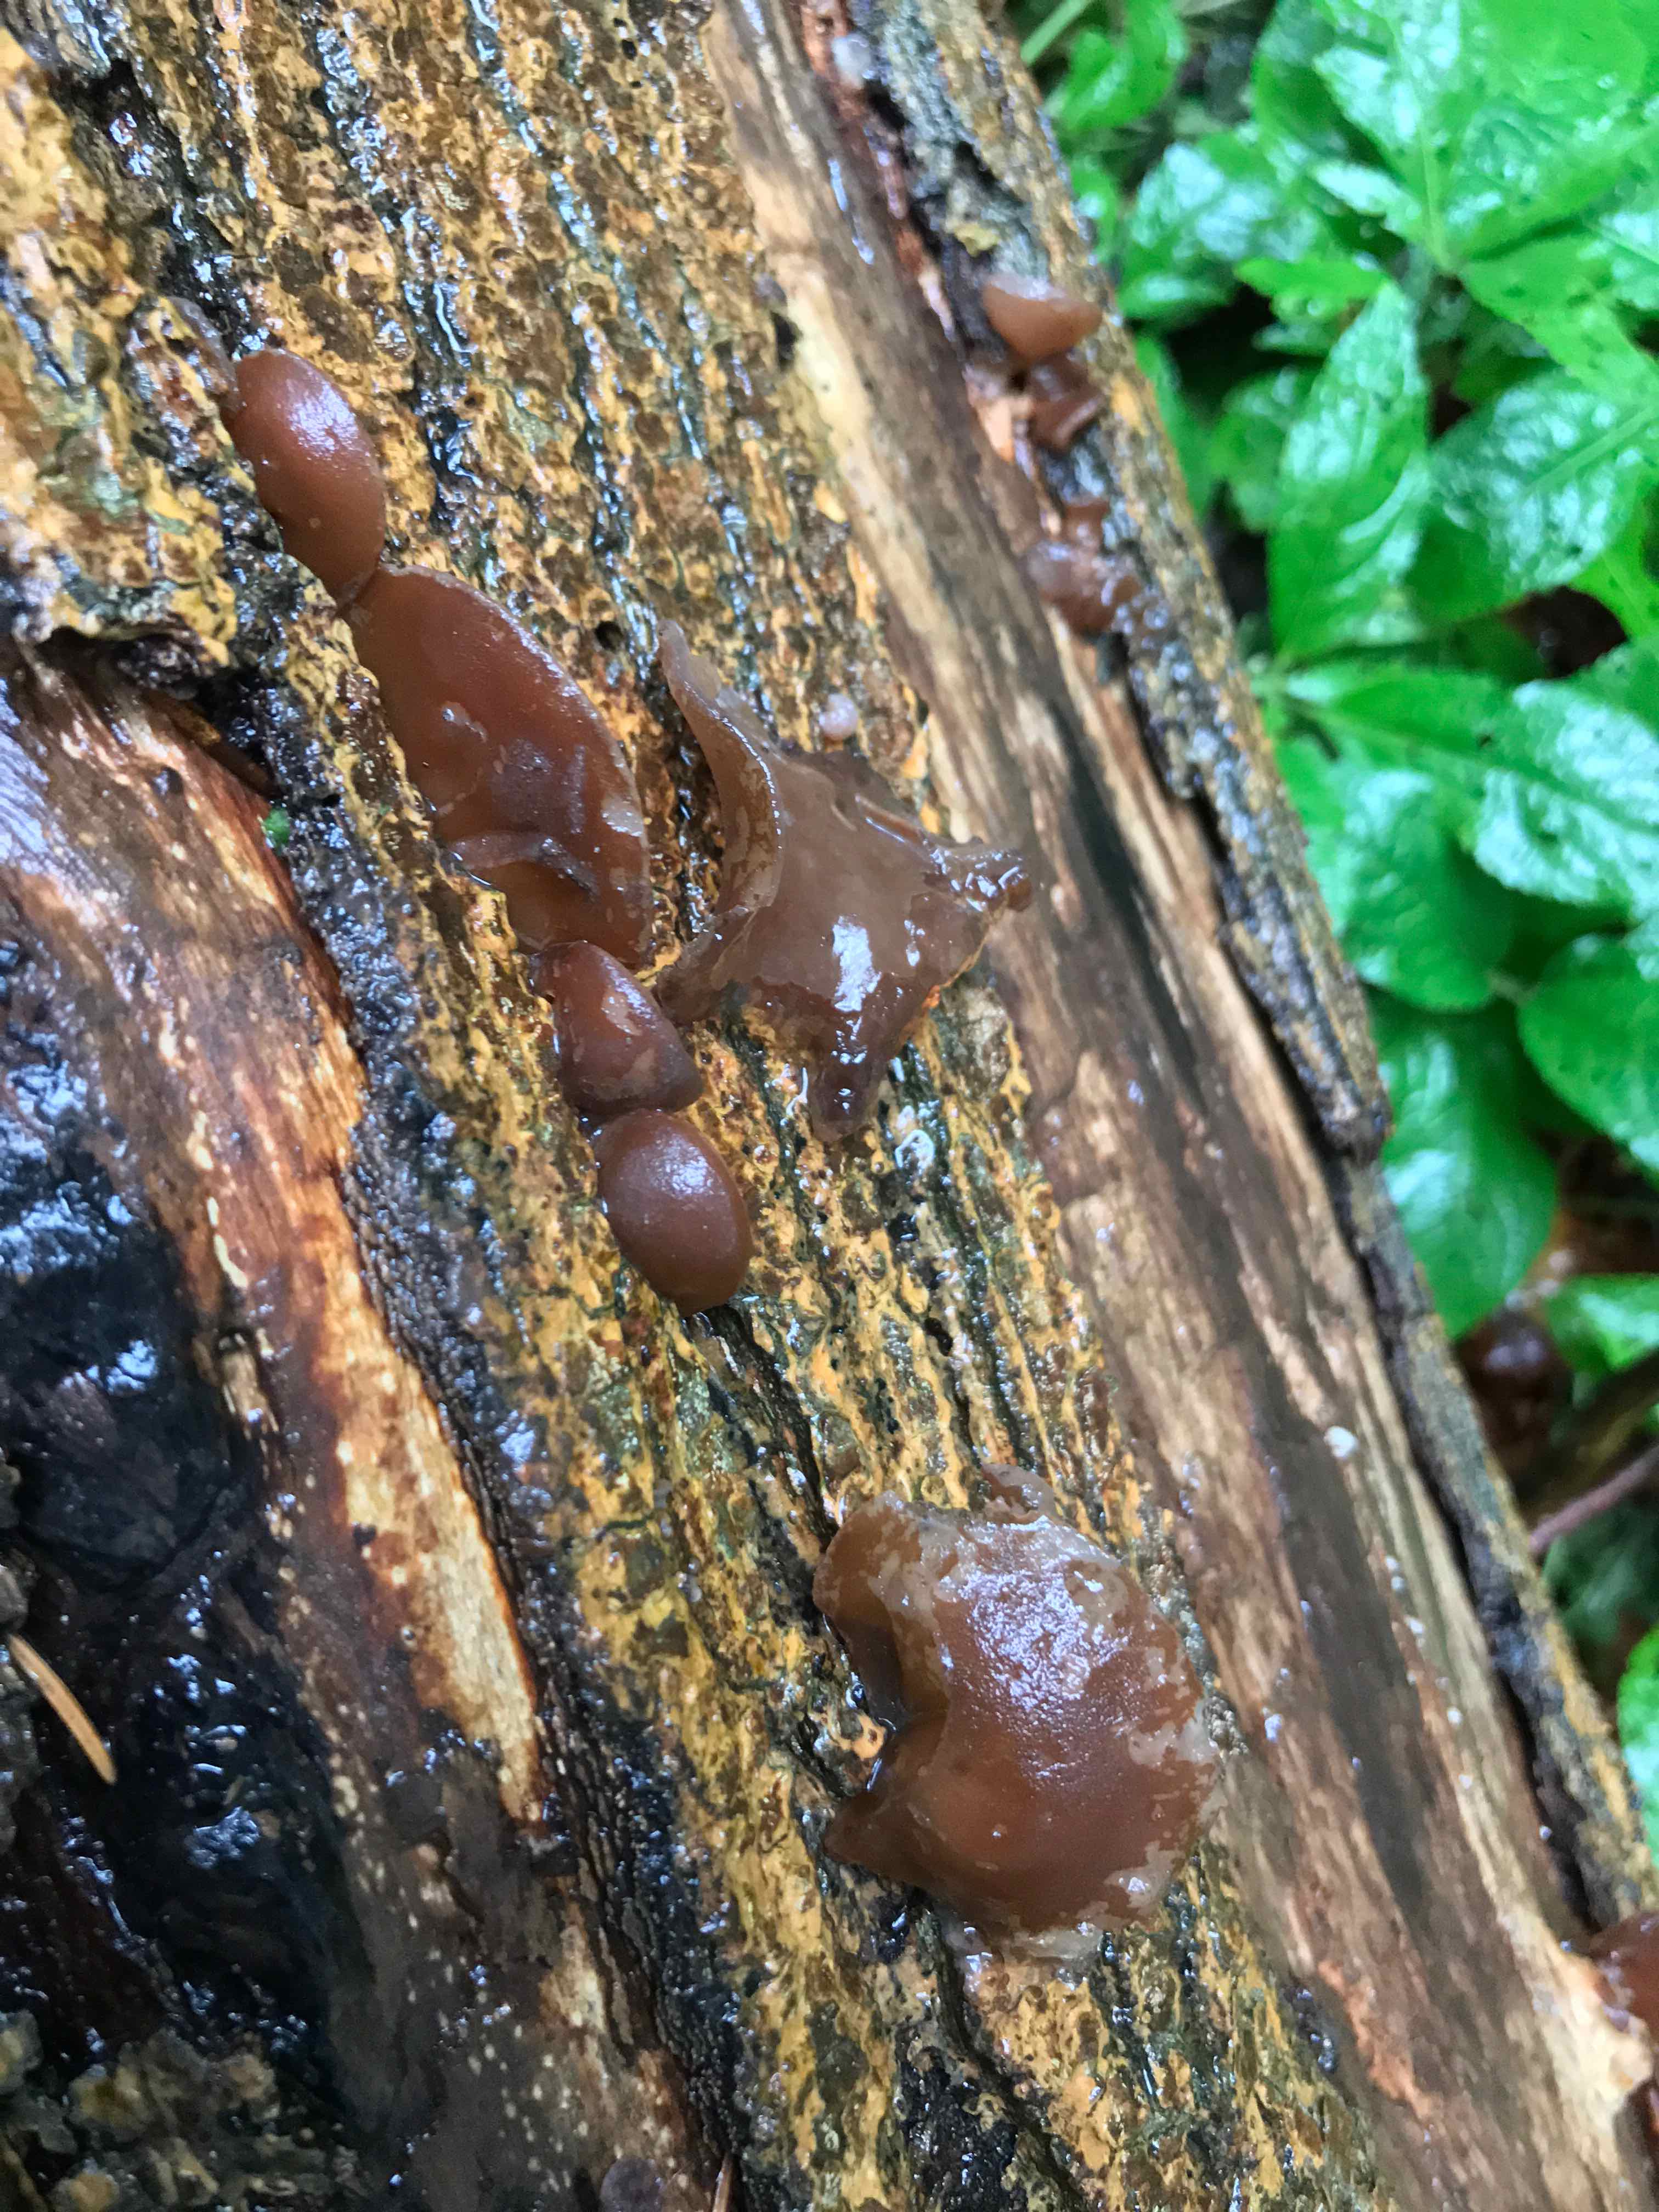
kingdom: Fungi
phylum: Basidiomycota
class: Agaricomycetes
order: Auriculariales
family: Auriculariaceae
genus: Auricularia
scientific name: Auricularia auricula-judae
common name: almindelig judasøre
